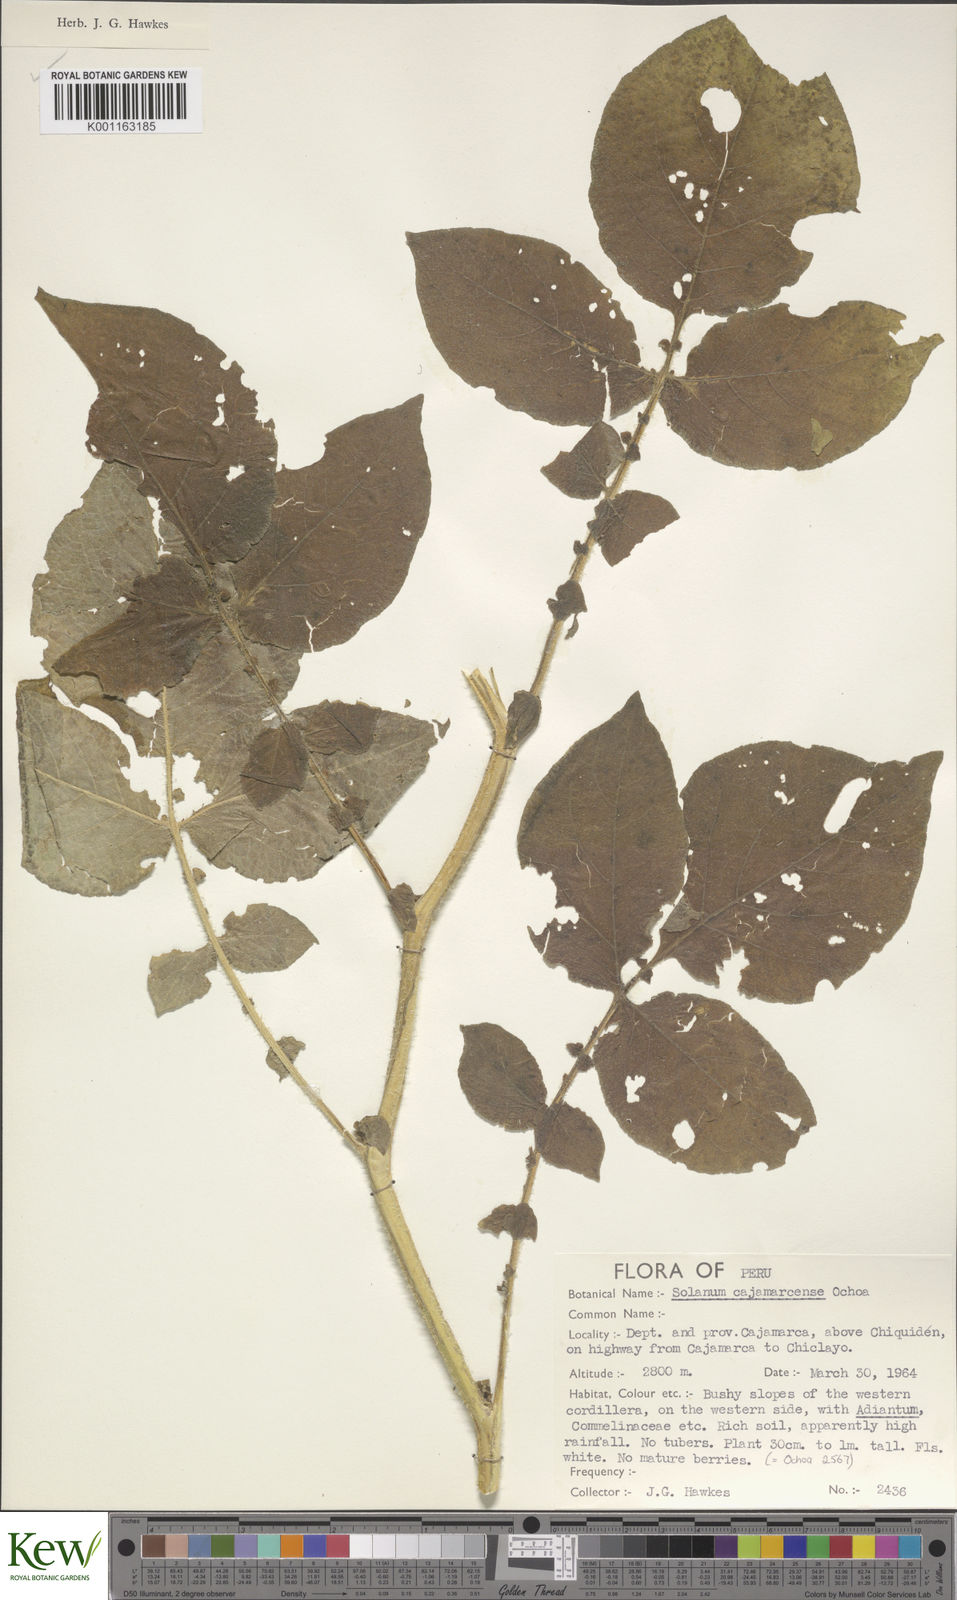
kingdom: Plantae
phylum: Tracheophyta
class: Magnoliopsida
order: Solanales
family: Solanaceae
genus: Solanum
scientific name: Solanum cajamarquense
